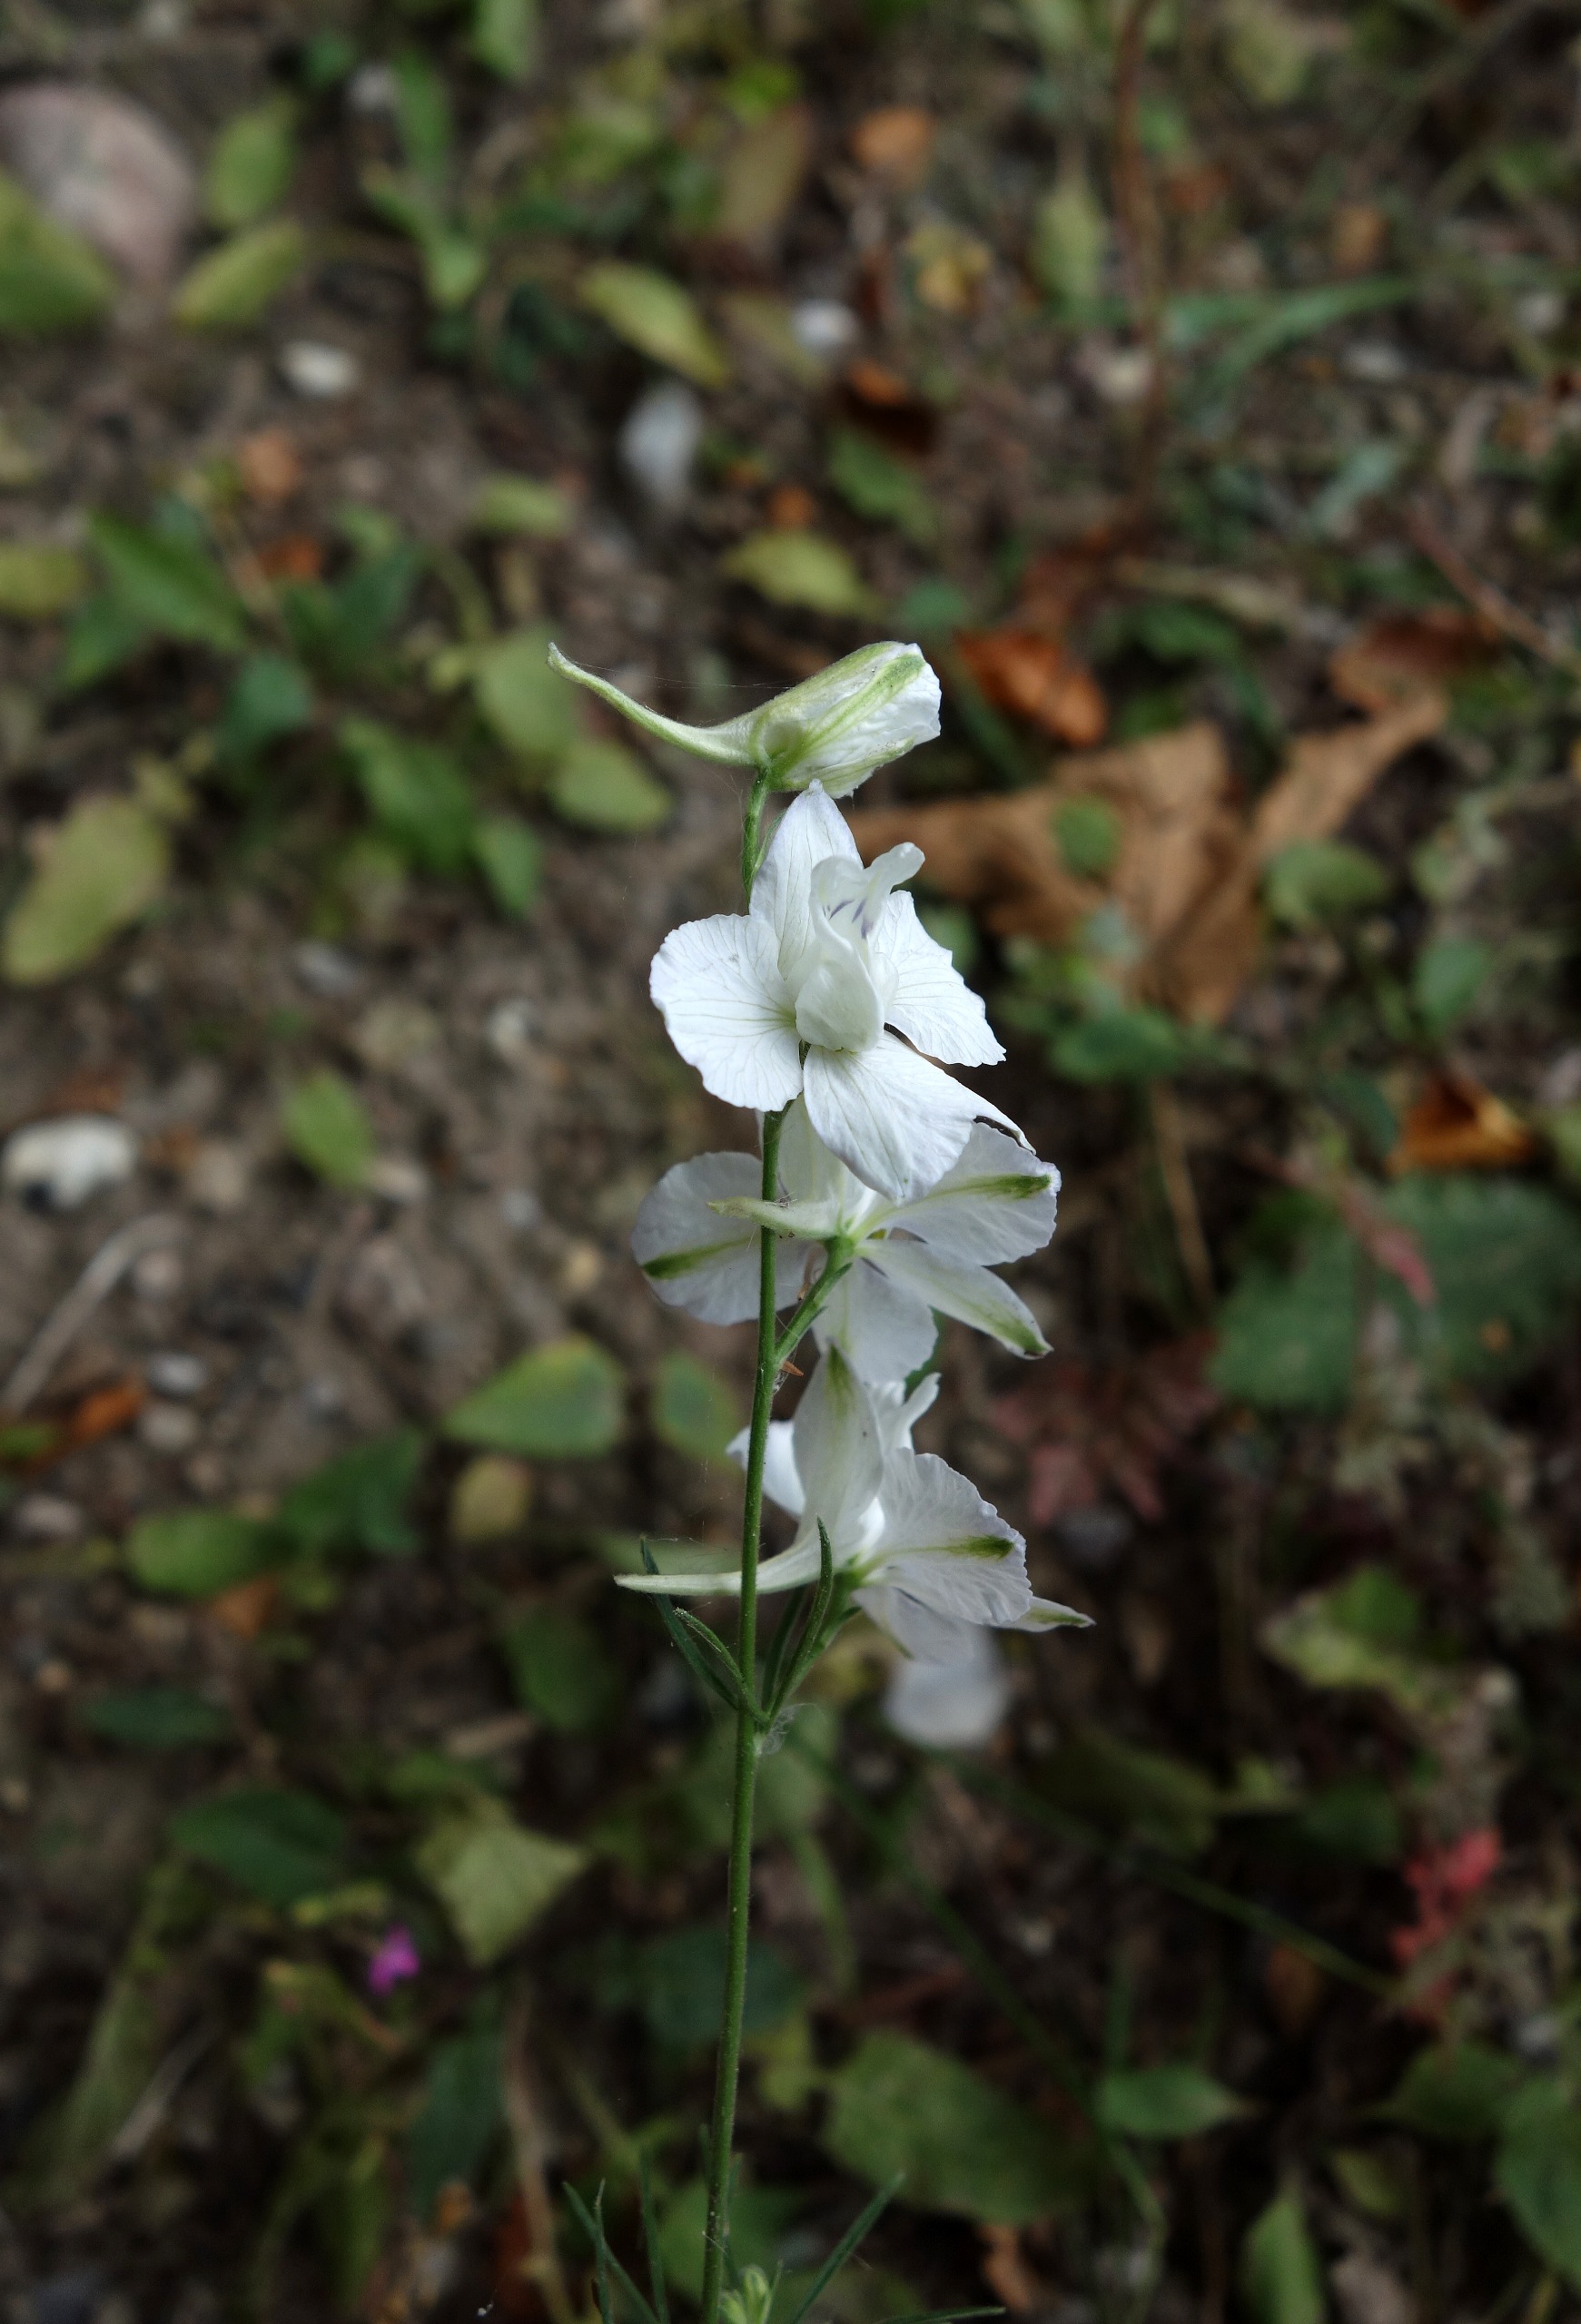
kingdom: Plantae
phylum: Tracheophyta
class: Magnoliopsida
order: Ranunculales
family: Ranunculaceae
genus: Delphinium
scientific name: Delphinium ajacis
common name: Have-ridderspore
